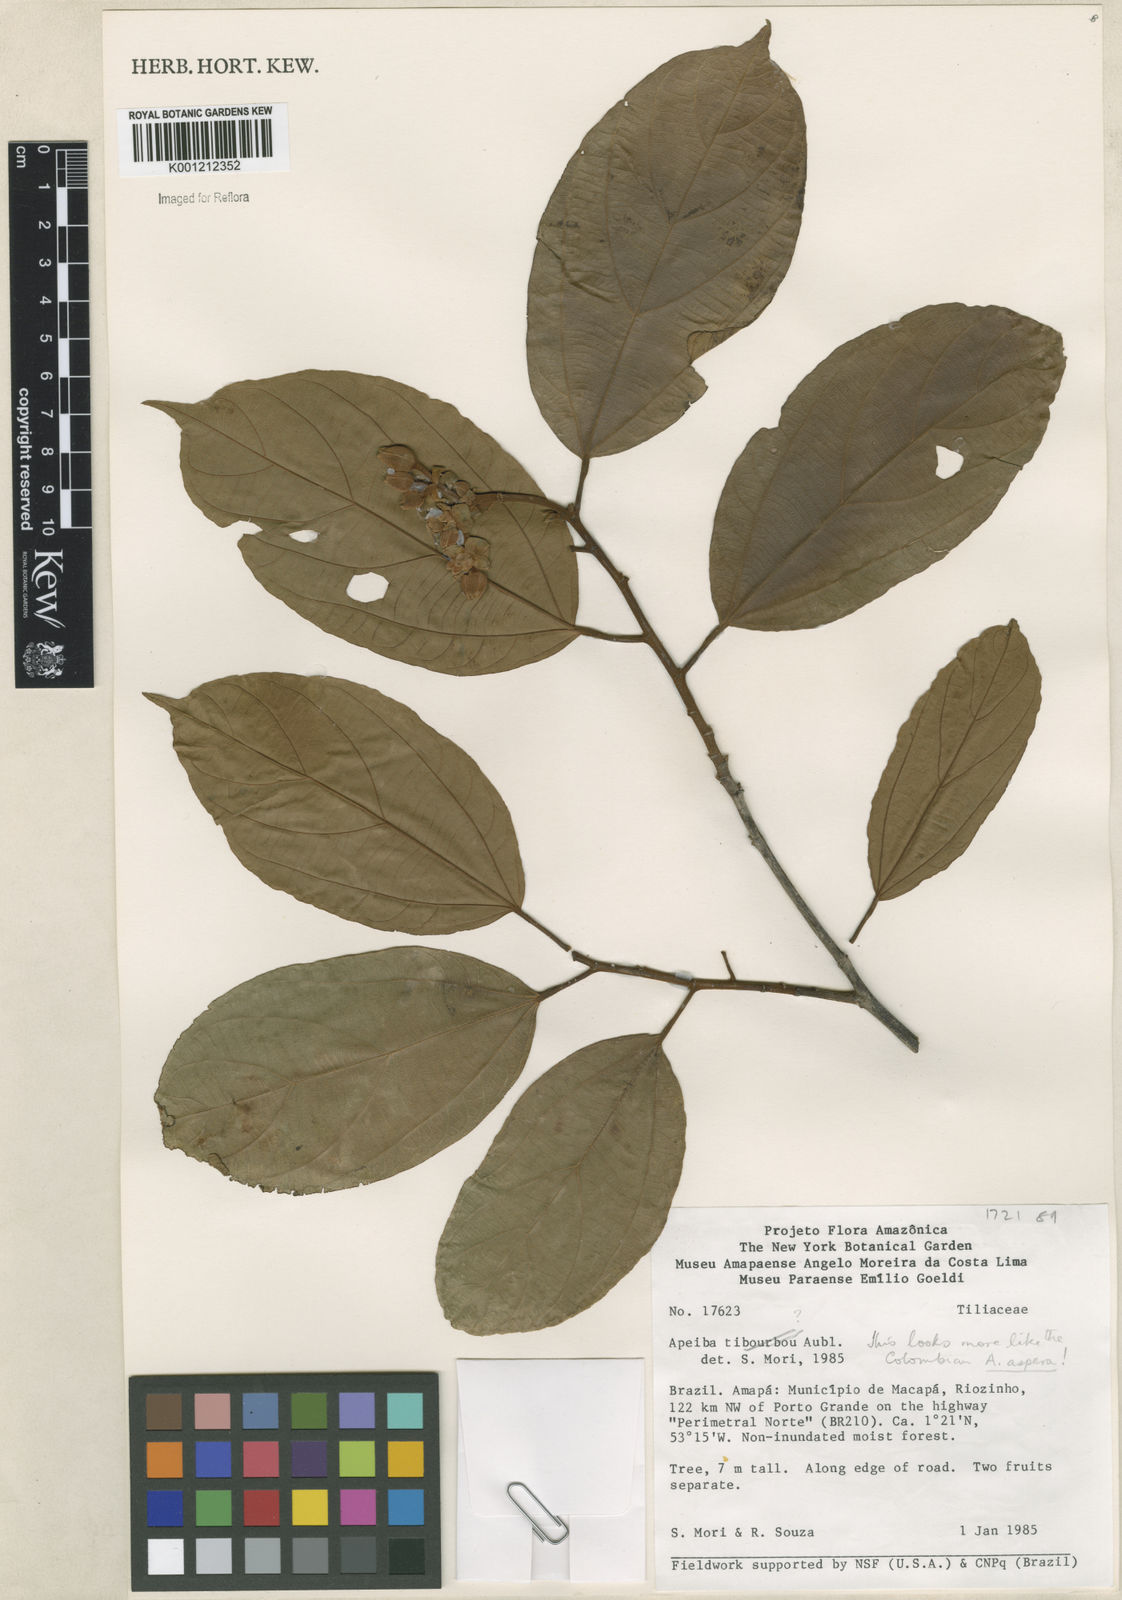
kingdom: Plantae
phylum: Tracheophyta
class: Magnoliopsida
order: Malvales
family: Malvaceae
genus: Apeiba
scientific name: Apeiba
